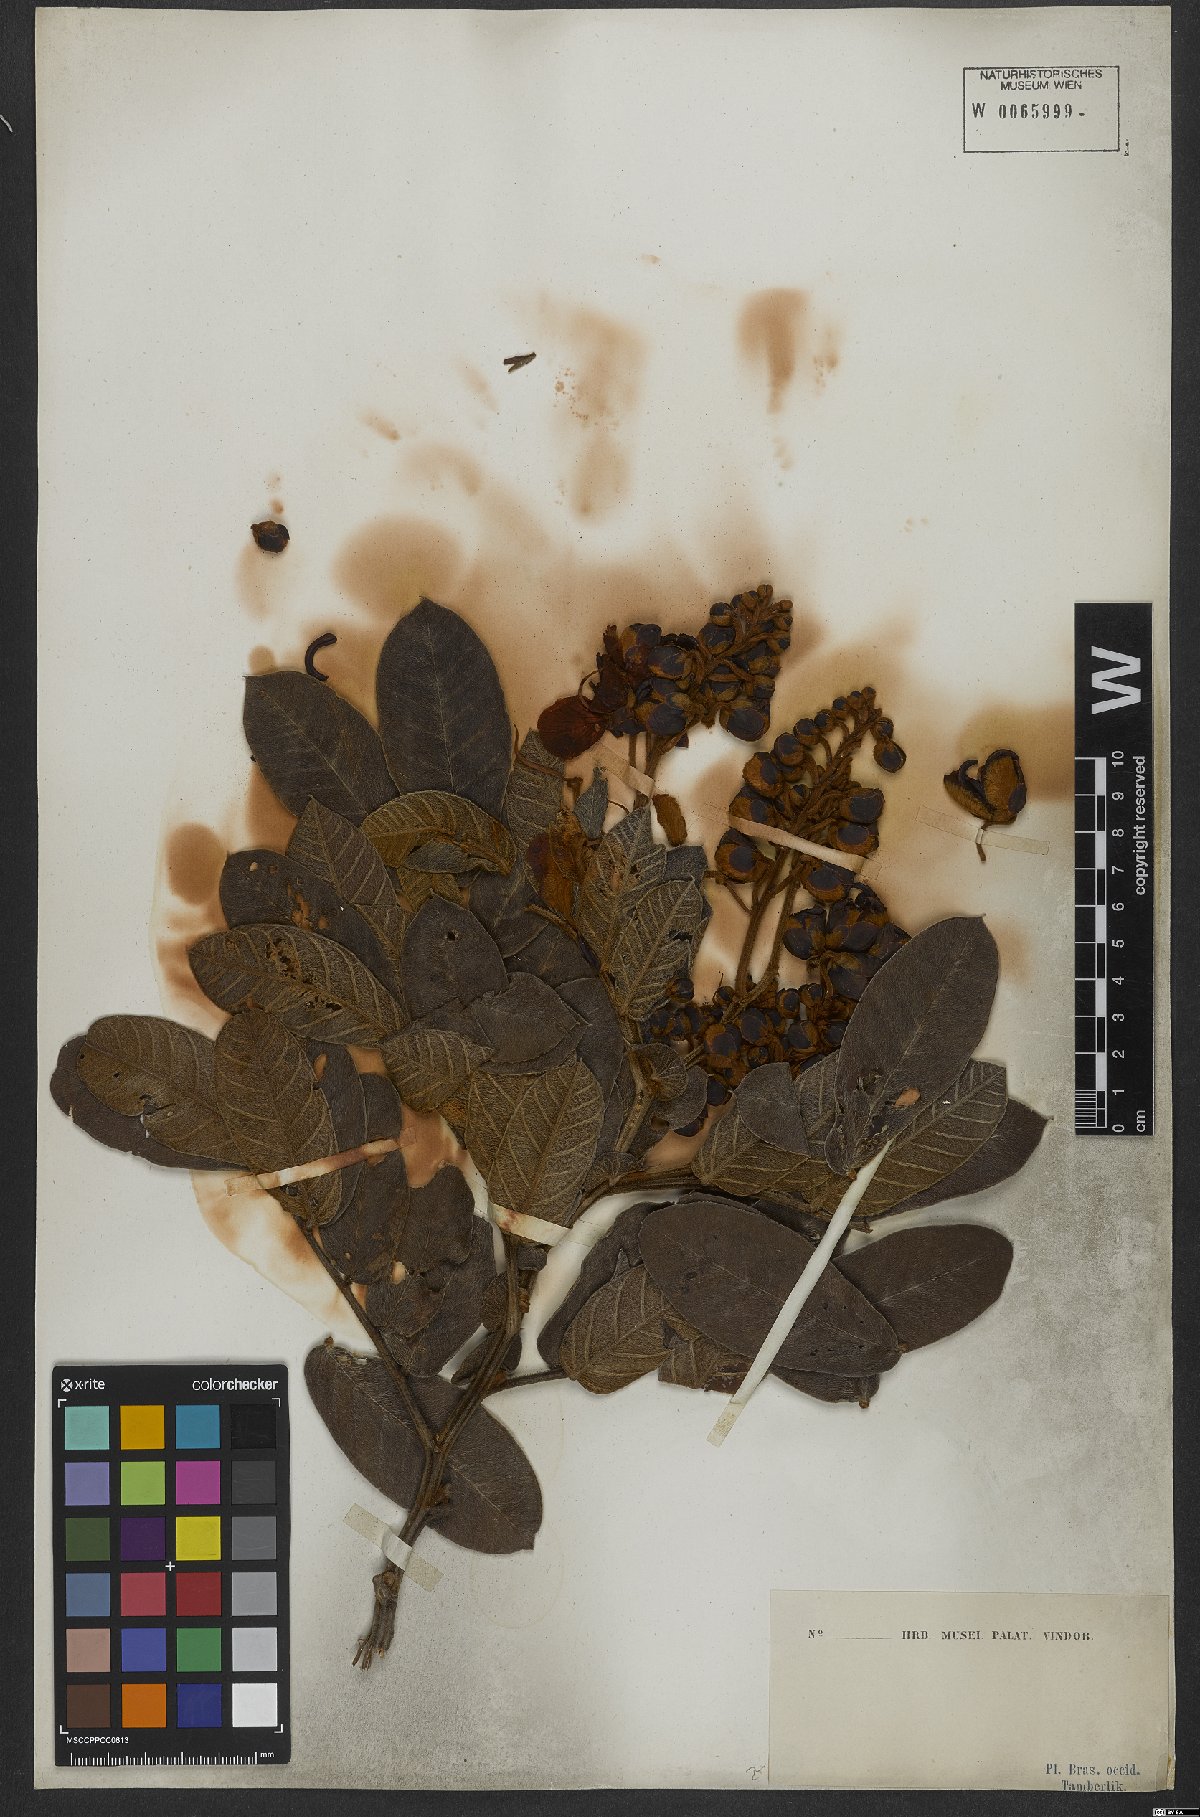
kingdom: Plantae
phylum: Tracheophyta
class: Magnoliopsida
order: Fabales
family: Fabaceae
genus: Senna
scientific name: Senna velutina
